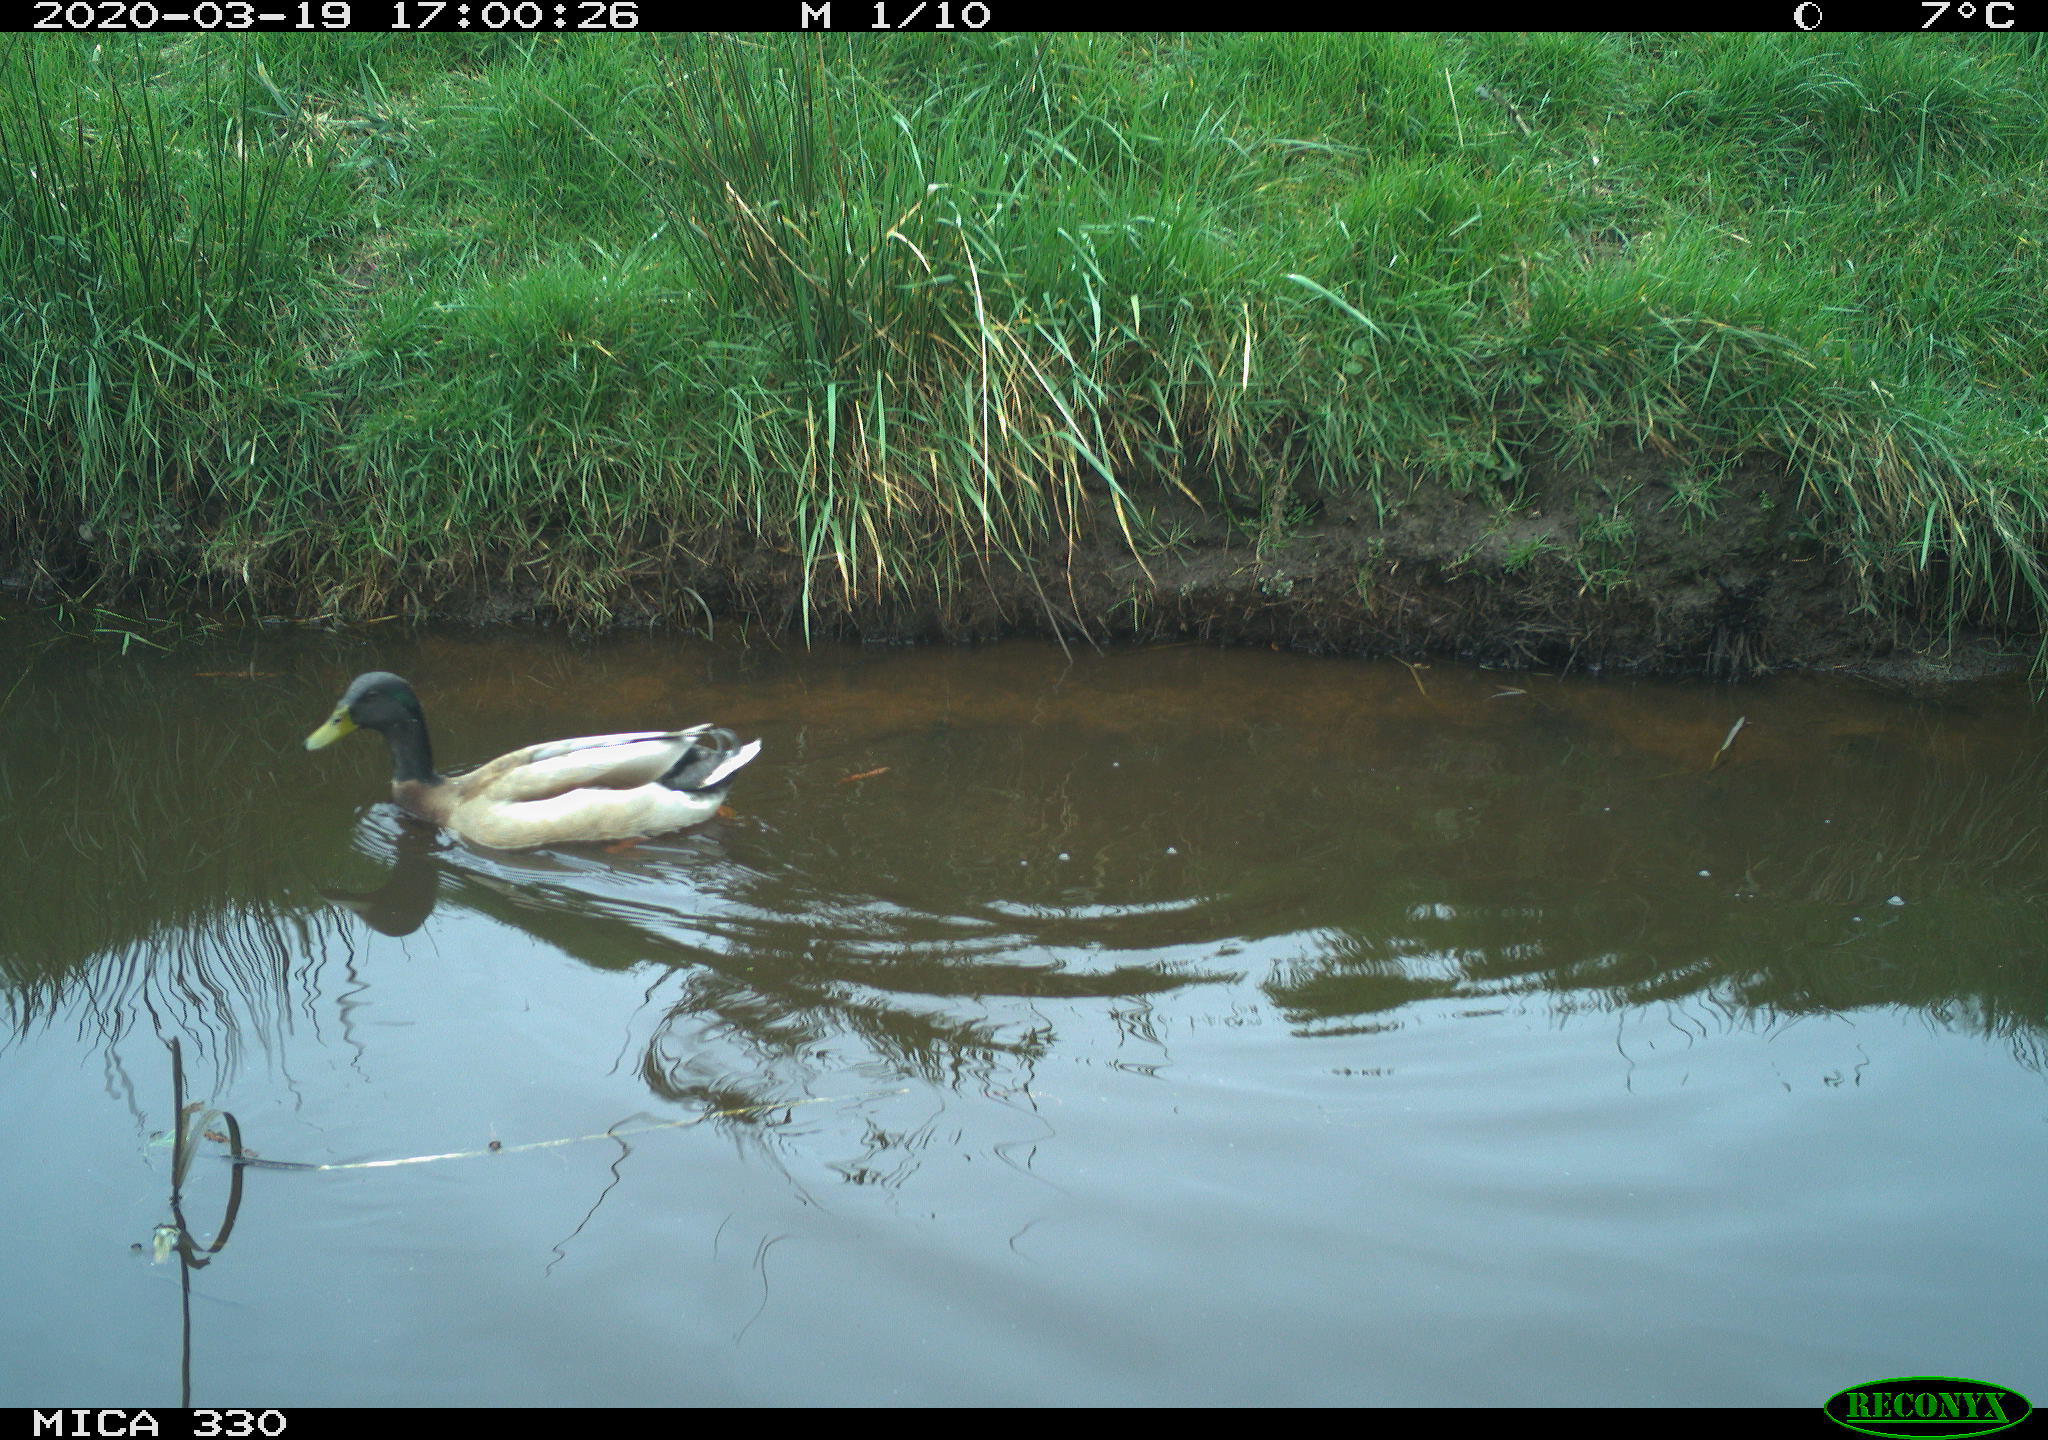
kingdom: Animalia
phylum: Chordata
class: Aves
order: Anseriformes
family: Anatidae
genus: Anas
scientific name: Anas platyrhynchos
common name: Mallard
